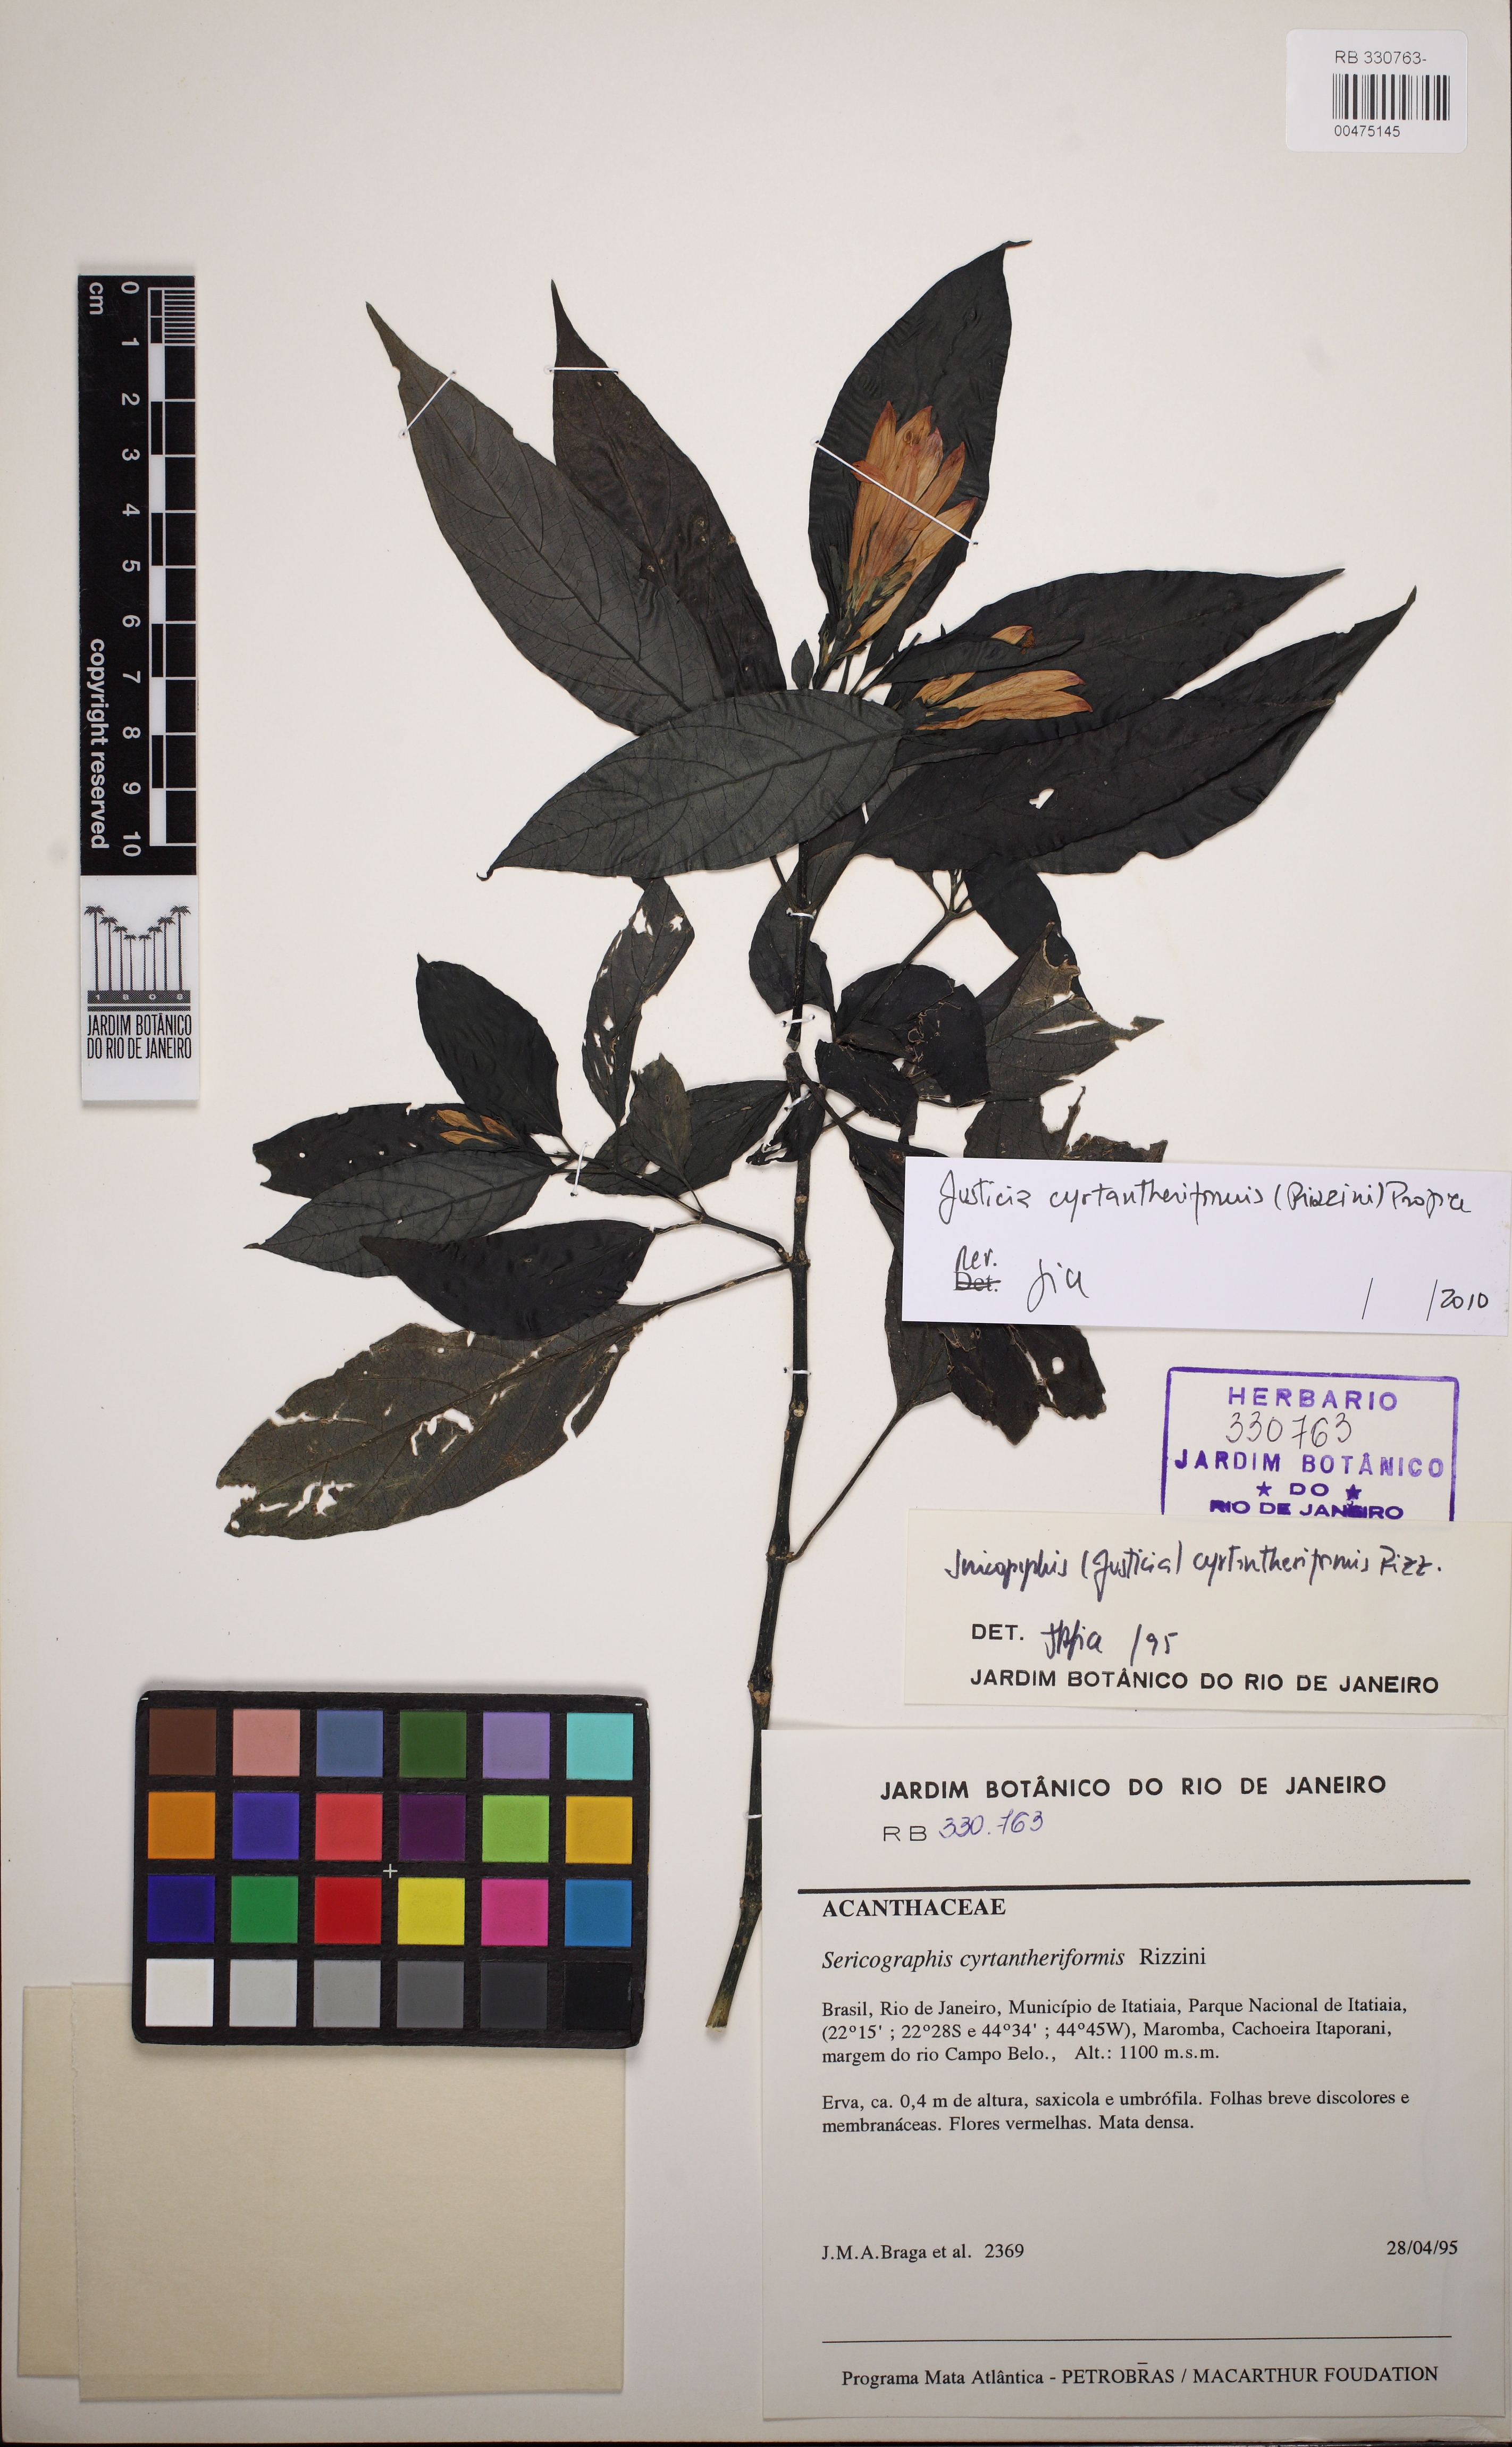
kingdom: Plantae
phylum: Tracheophyta
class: Magnoliopsida
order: Lamiales
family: Acanthaceae
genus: Justicia
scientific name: Justicia cyrtantheriformis
